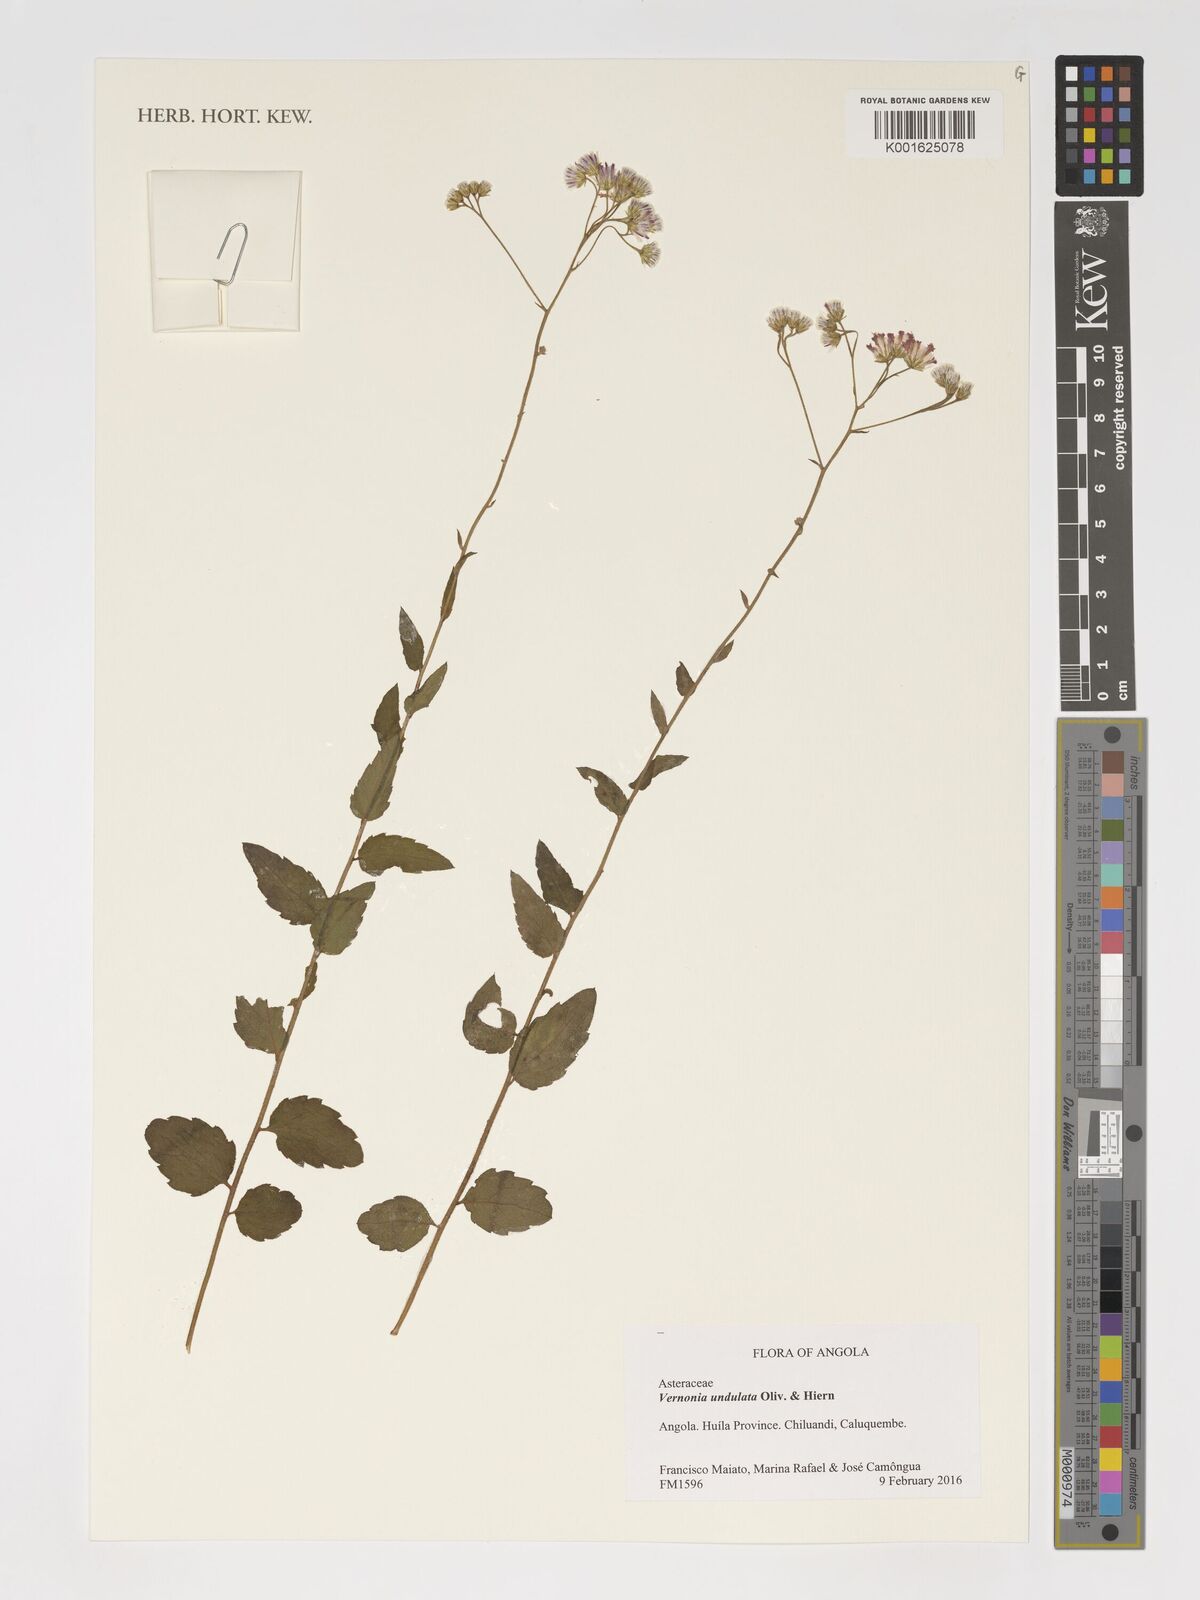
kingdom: Plantae
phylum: Tracheophyta
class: Magnoliopsida
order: Asterales
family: Asteraceae
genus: Vernonia
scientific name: Vernonia golungensis
